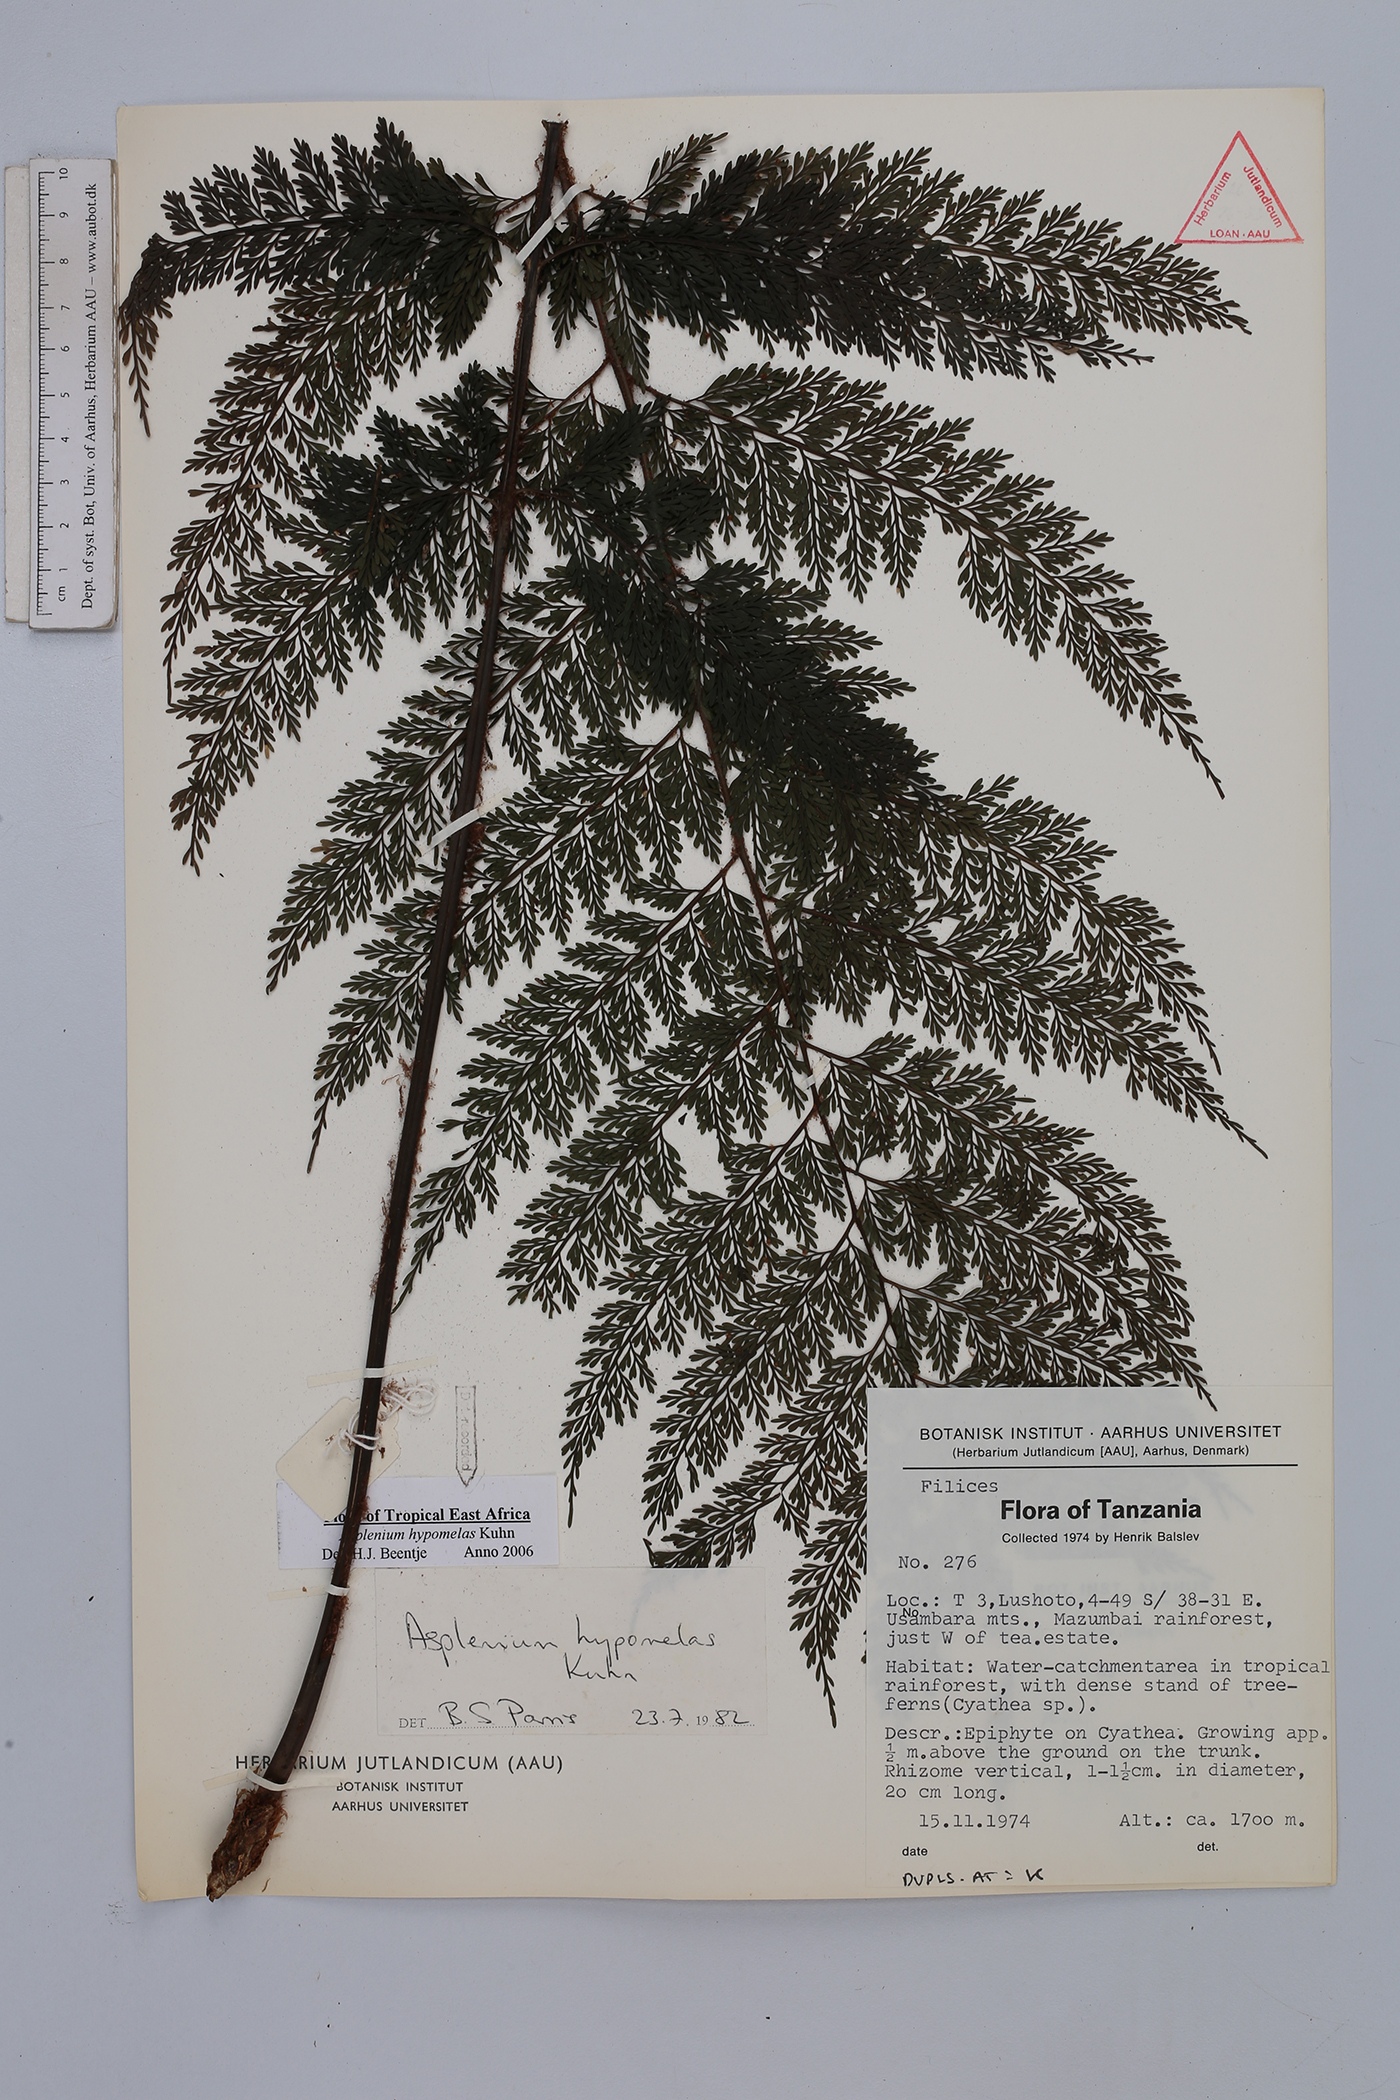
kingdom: Plantae
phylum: Tracheophyta
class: Polypodiopsida
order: Polypodiales
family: Aspleniaceae
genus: Asplenium
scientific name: Asplenium hypomelas
